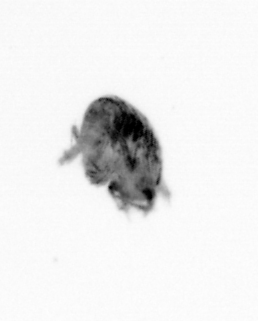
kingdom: Animalia
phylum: Annelida
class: Polychaeta
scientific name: Polychaeta
